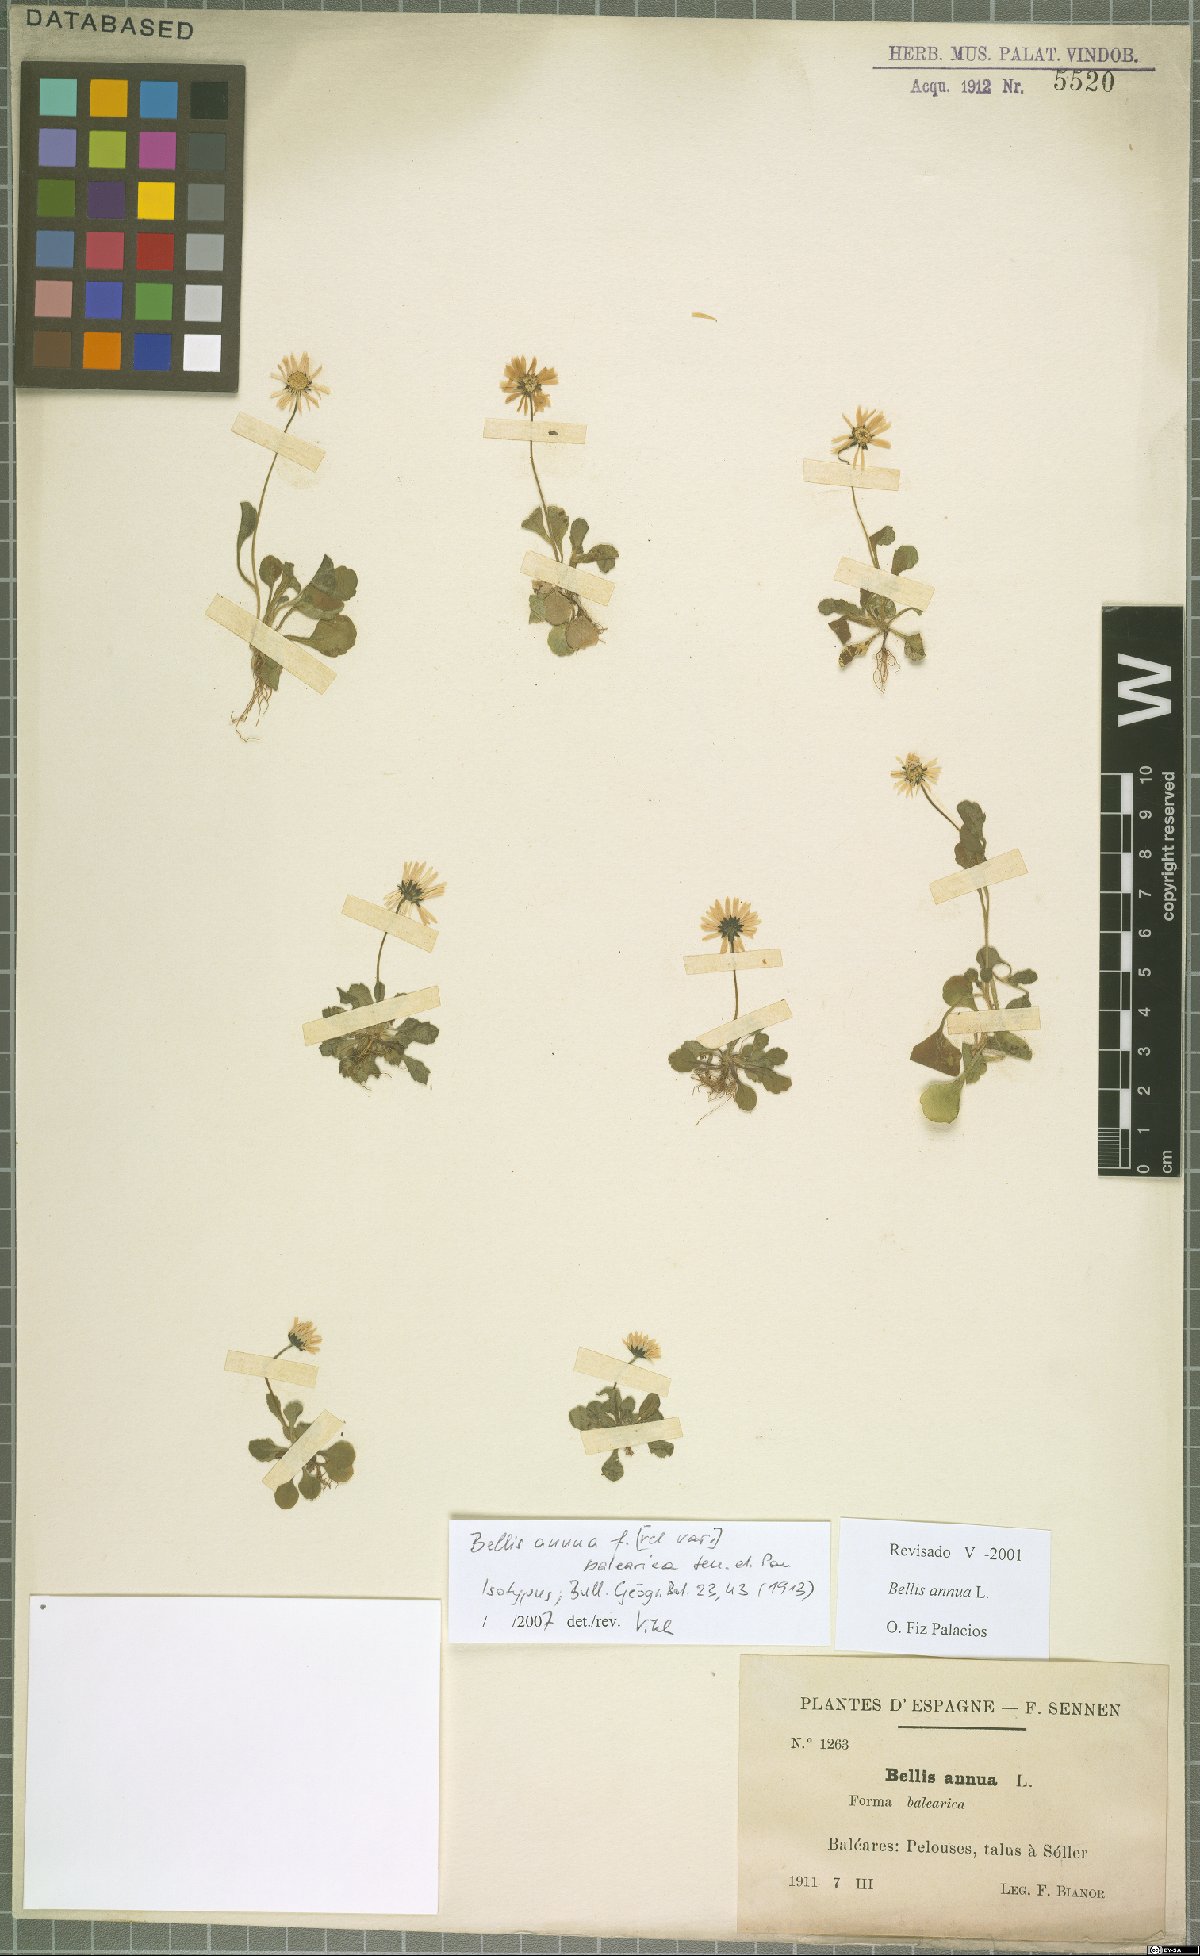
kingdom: Plantae
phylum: Tracheophyta
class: Magnoliopsida
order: Asterales
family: Asteraceae
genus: Bellis
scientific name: Bellis annua
